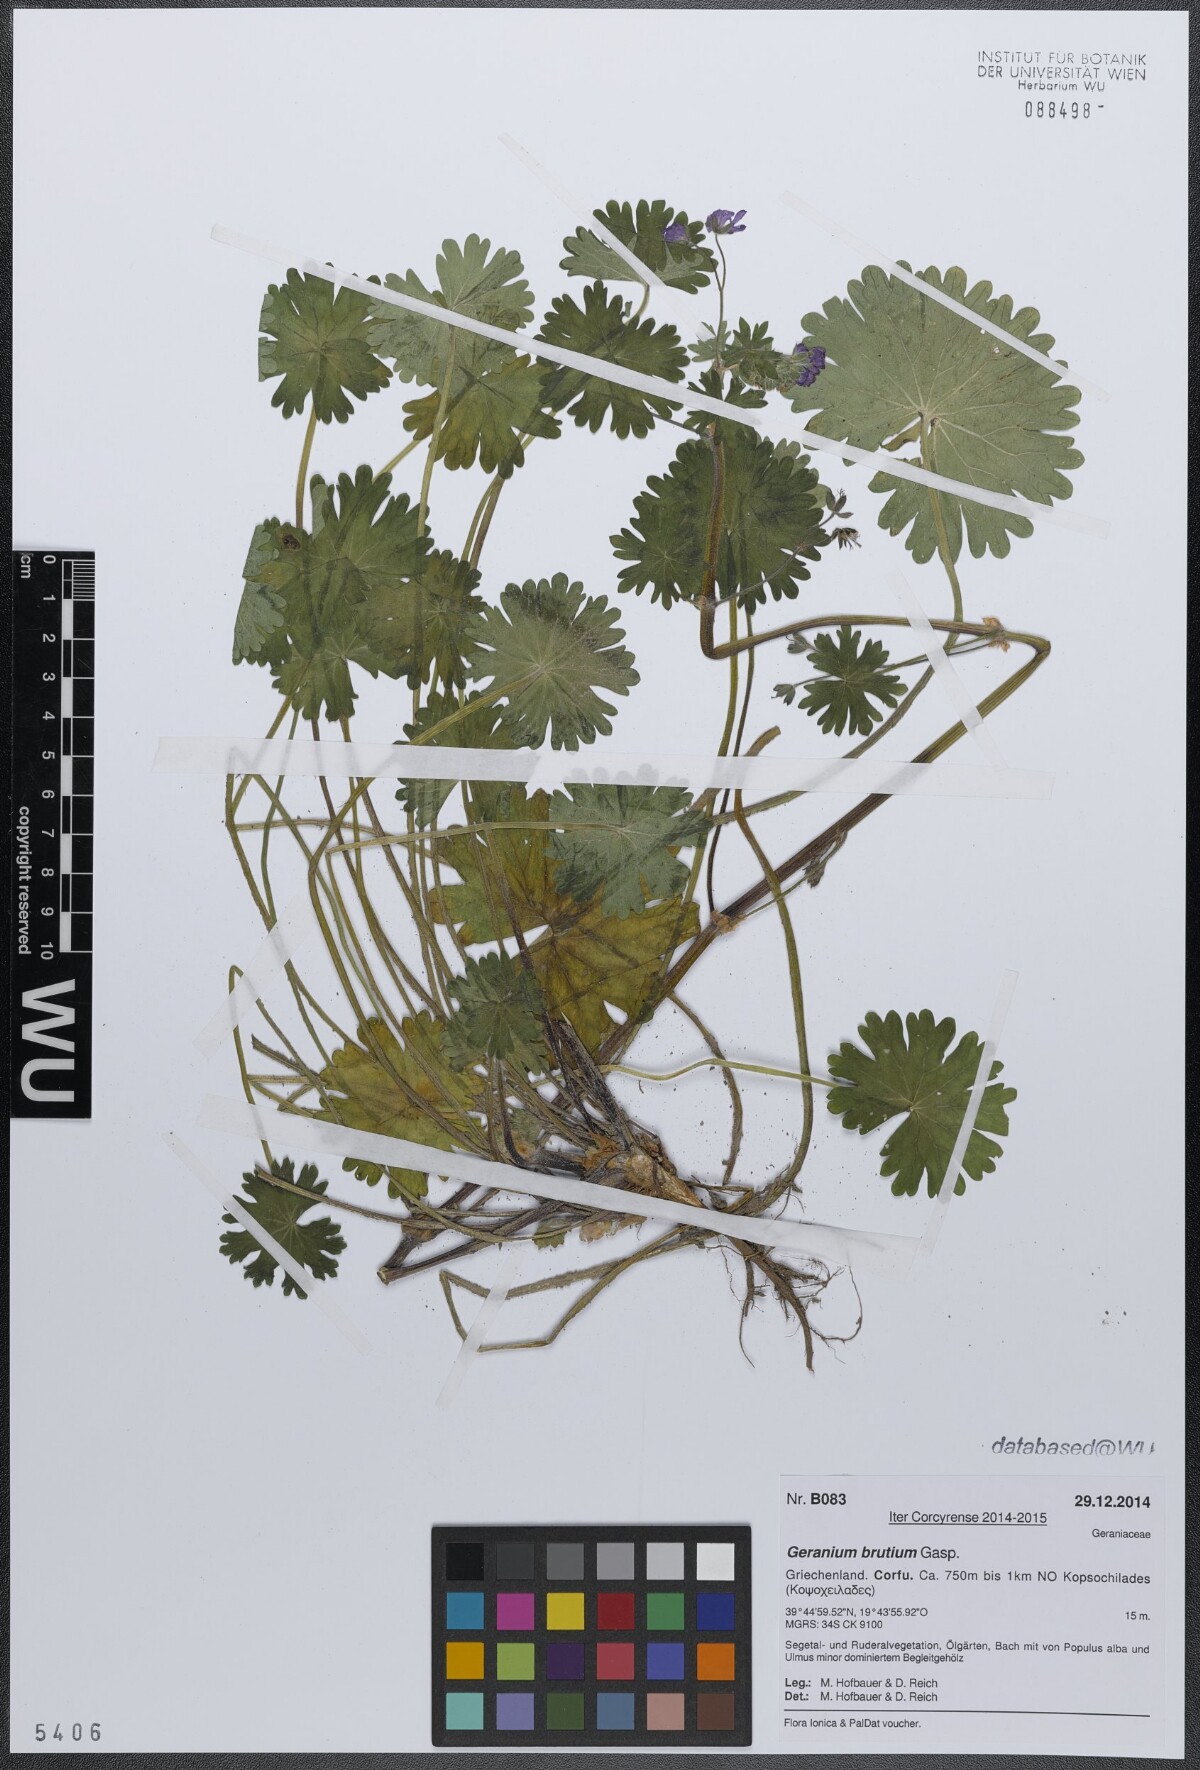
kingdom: Plantae
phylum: Tracheophyta
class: Magnoliopsida
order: Geraniales
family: Geraniaceae
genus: Geranium
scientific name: Geranium molle
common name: Dove's-foot crane's-bill
